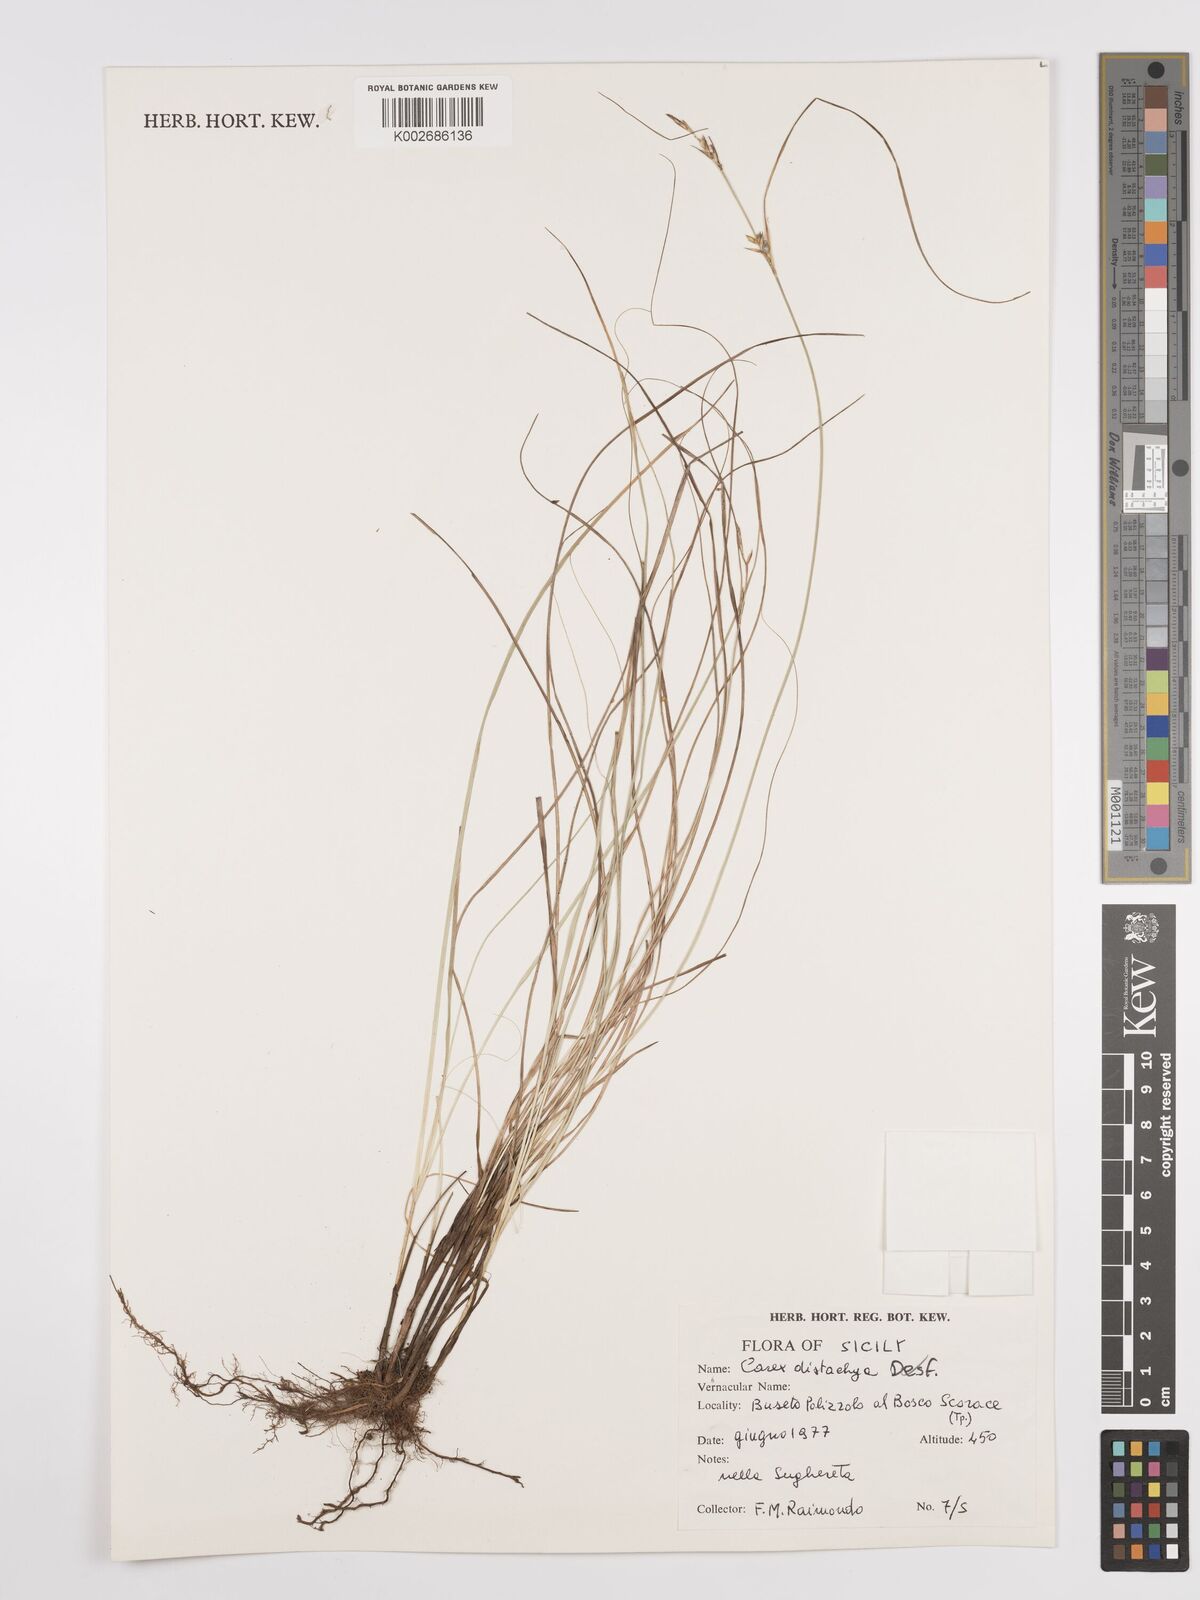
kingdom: Plantae
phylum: Tracheophyta
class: Liliopsida
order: Poales
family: Cyperaceae
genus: Carex
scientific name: Carex distachya
